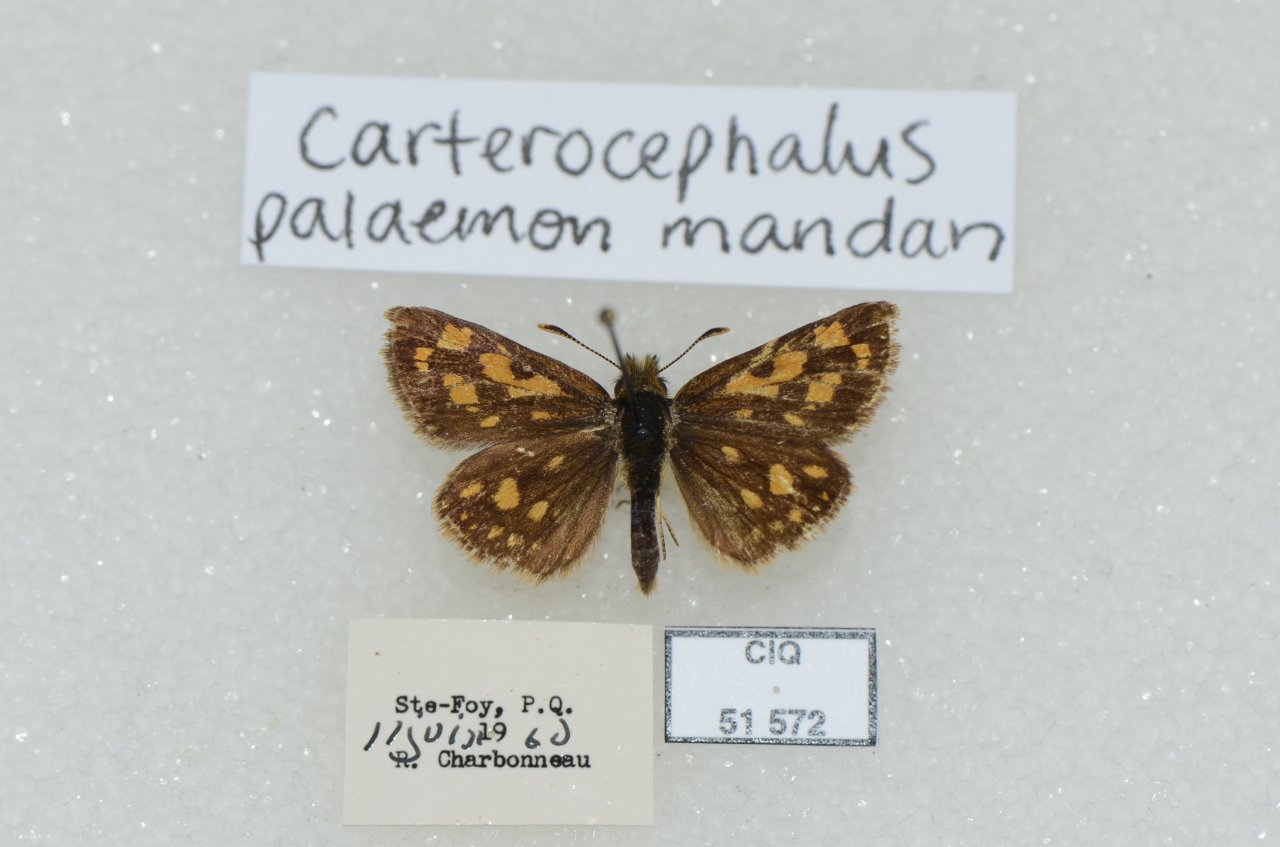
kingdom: Animalia
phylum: Arthropoda
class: Insecta
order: Lepidoptera
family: Hesperiidae
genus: Carterocephalus
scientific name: Carterocephalus palaemon
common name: Chequered Skipper
